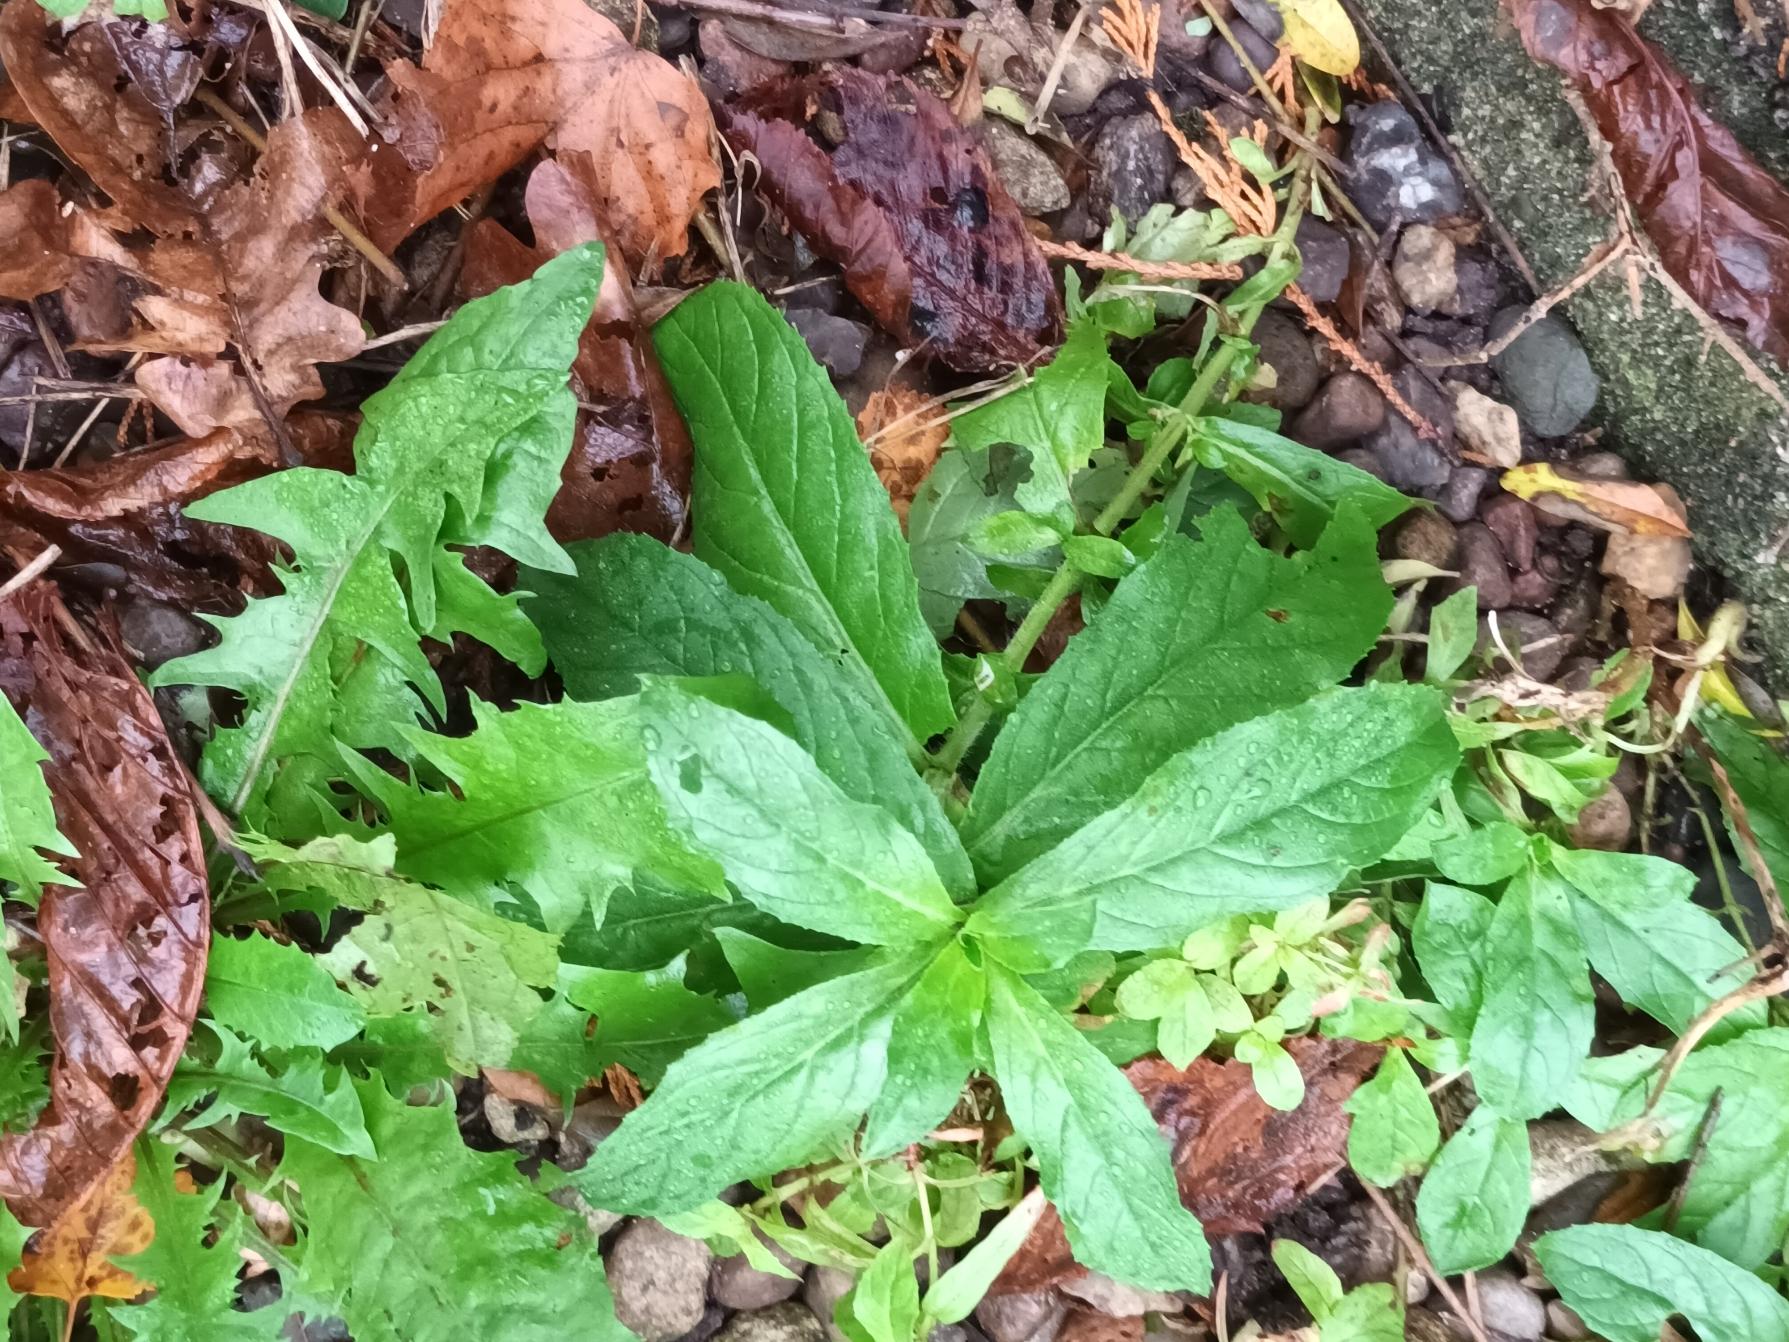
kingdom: Plantae
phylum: Tracheophyta
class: Magnoliopsida
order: Myrtales
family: Onagraceae
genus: Epilobium
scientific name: Epilobium hirsutum
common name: Lådden dueurt
